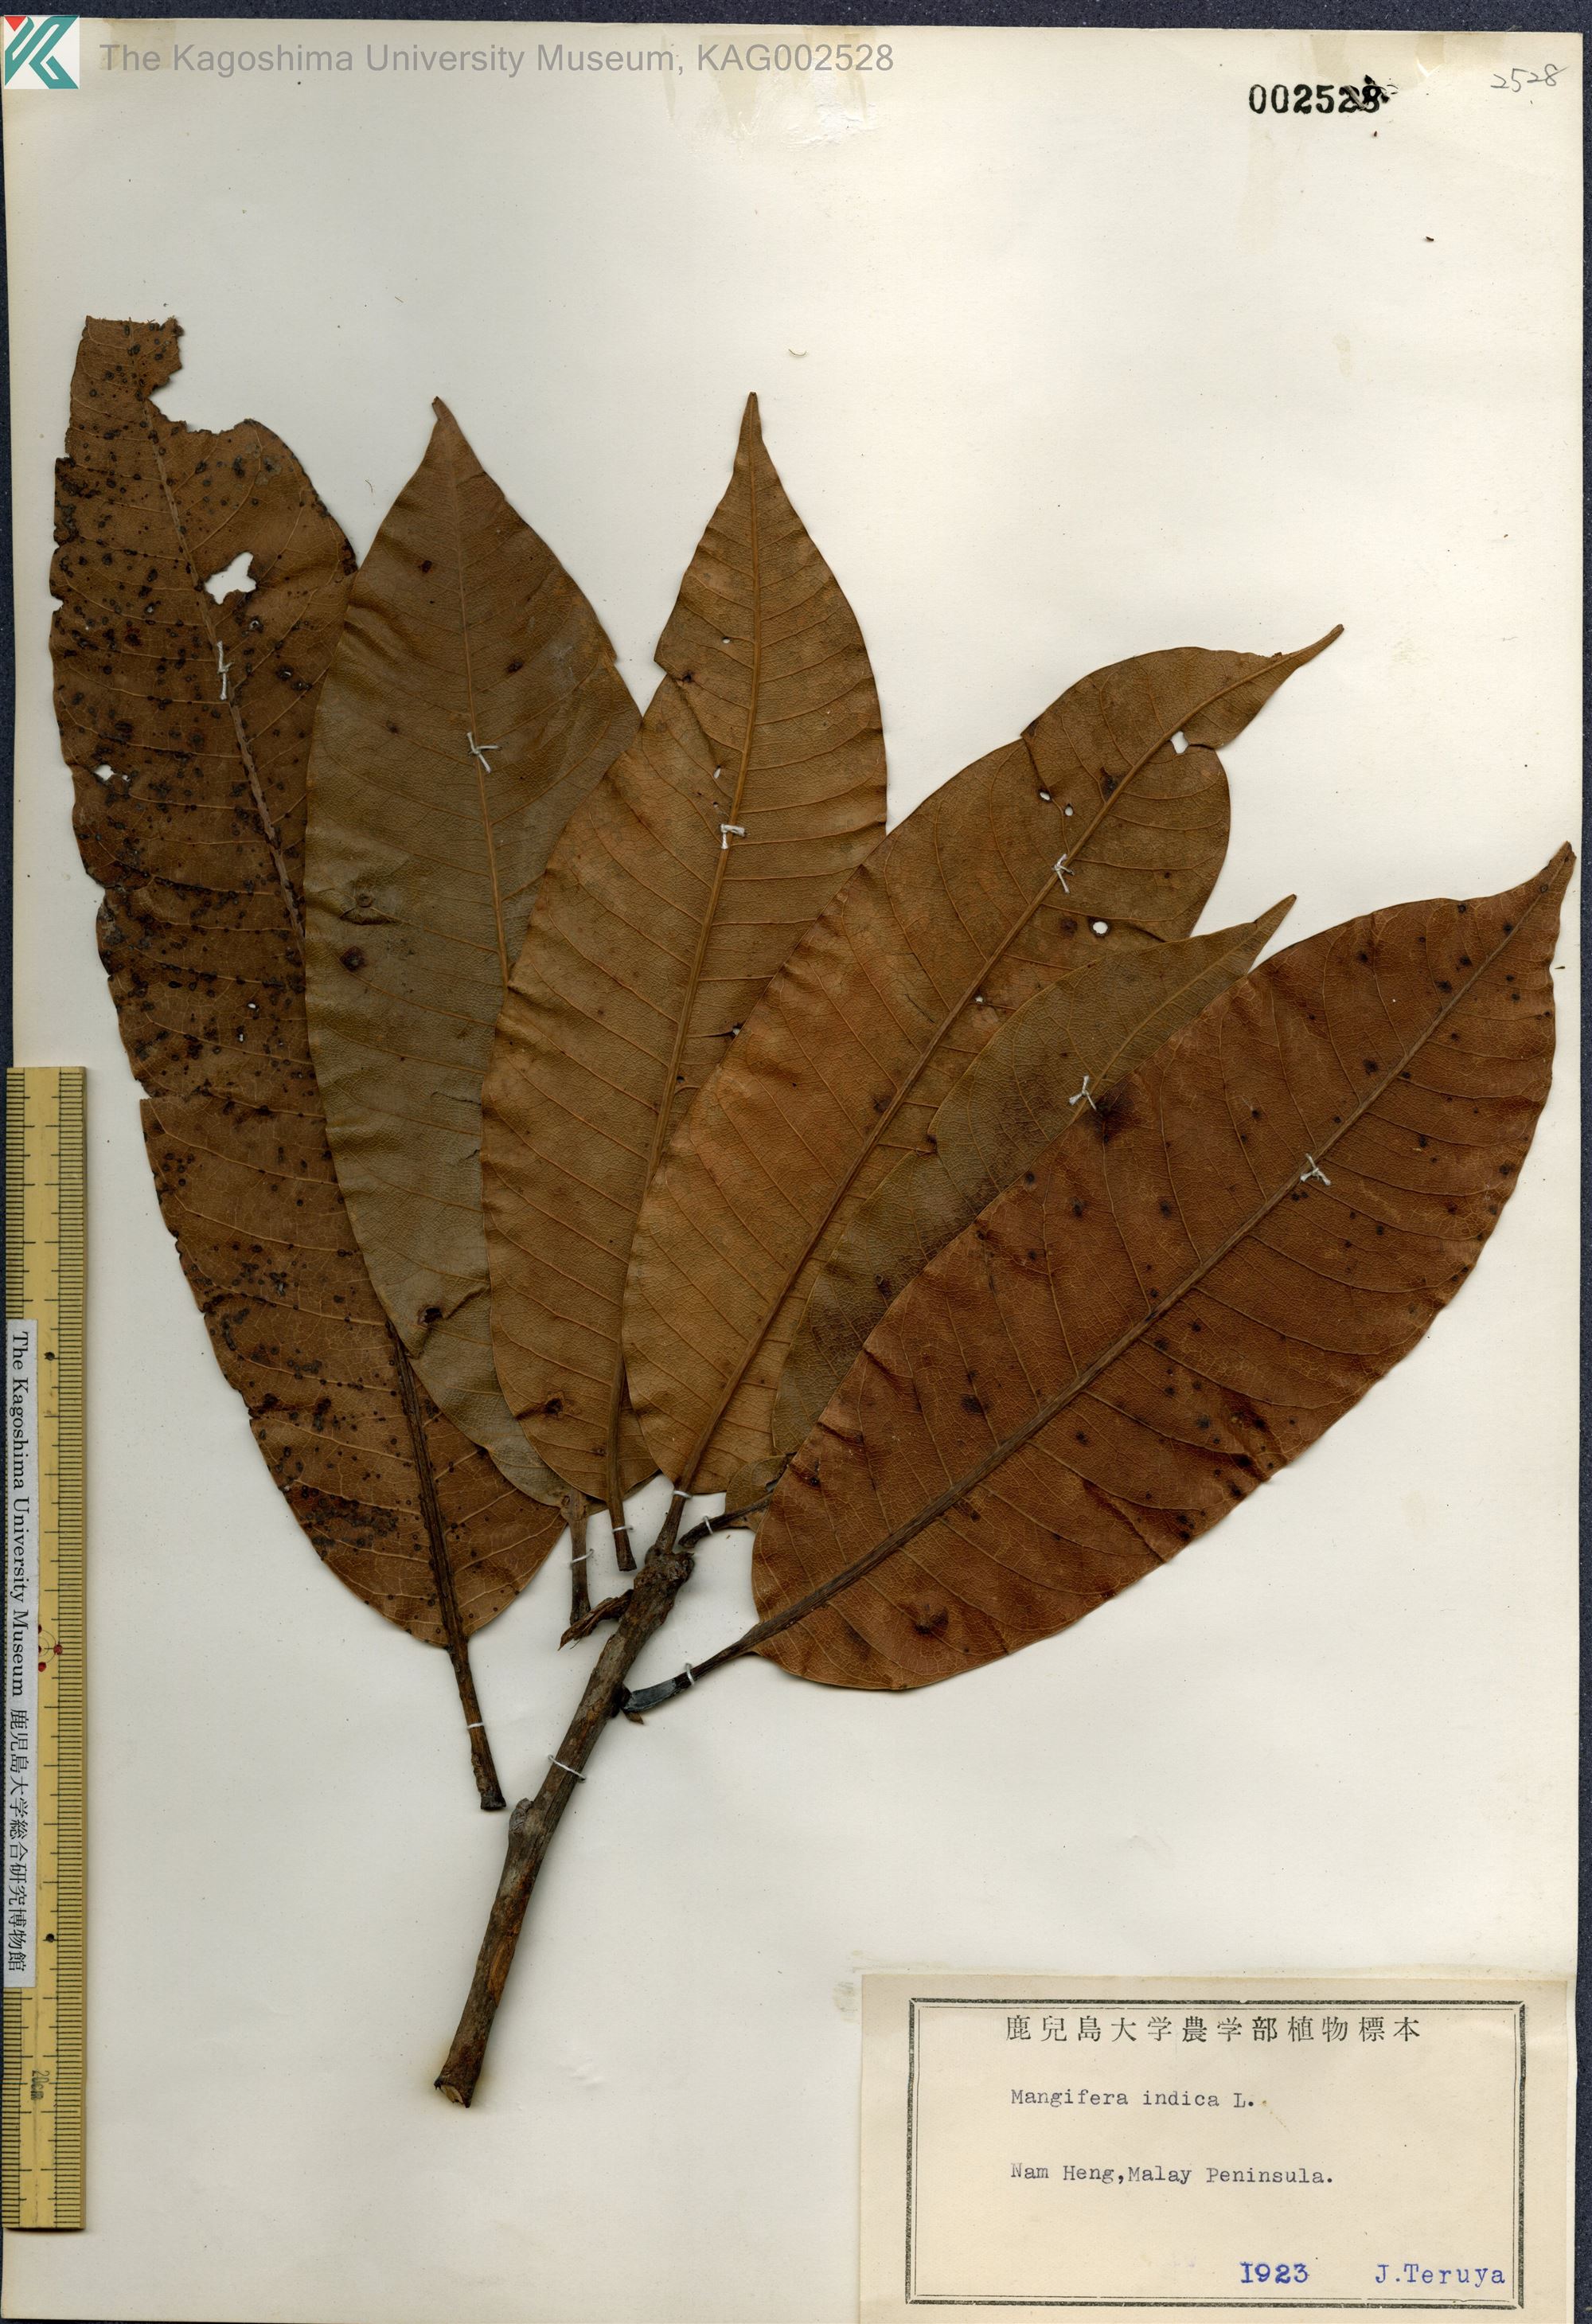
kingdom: Plantae
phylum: Tracheophyta
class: Magnoliopsida
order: Sapindales
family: Anacardiaceae
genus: Mangifera
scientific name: Mangifera indica
